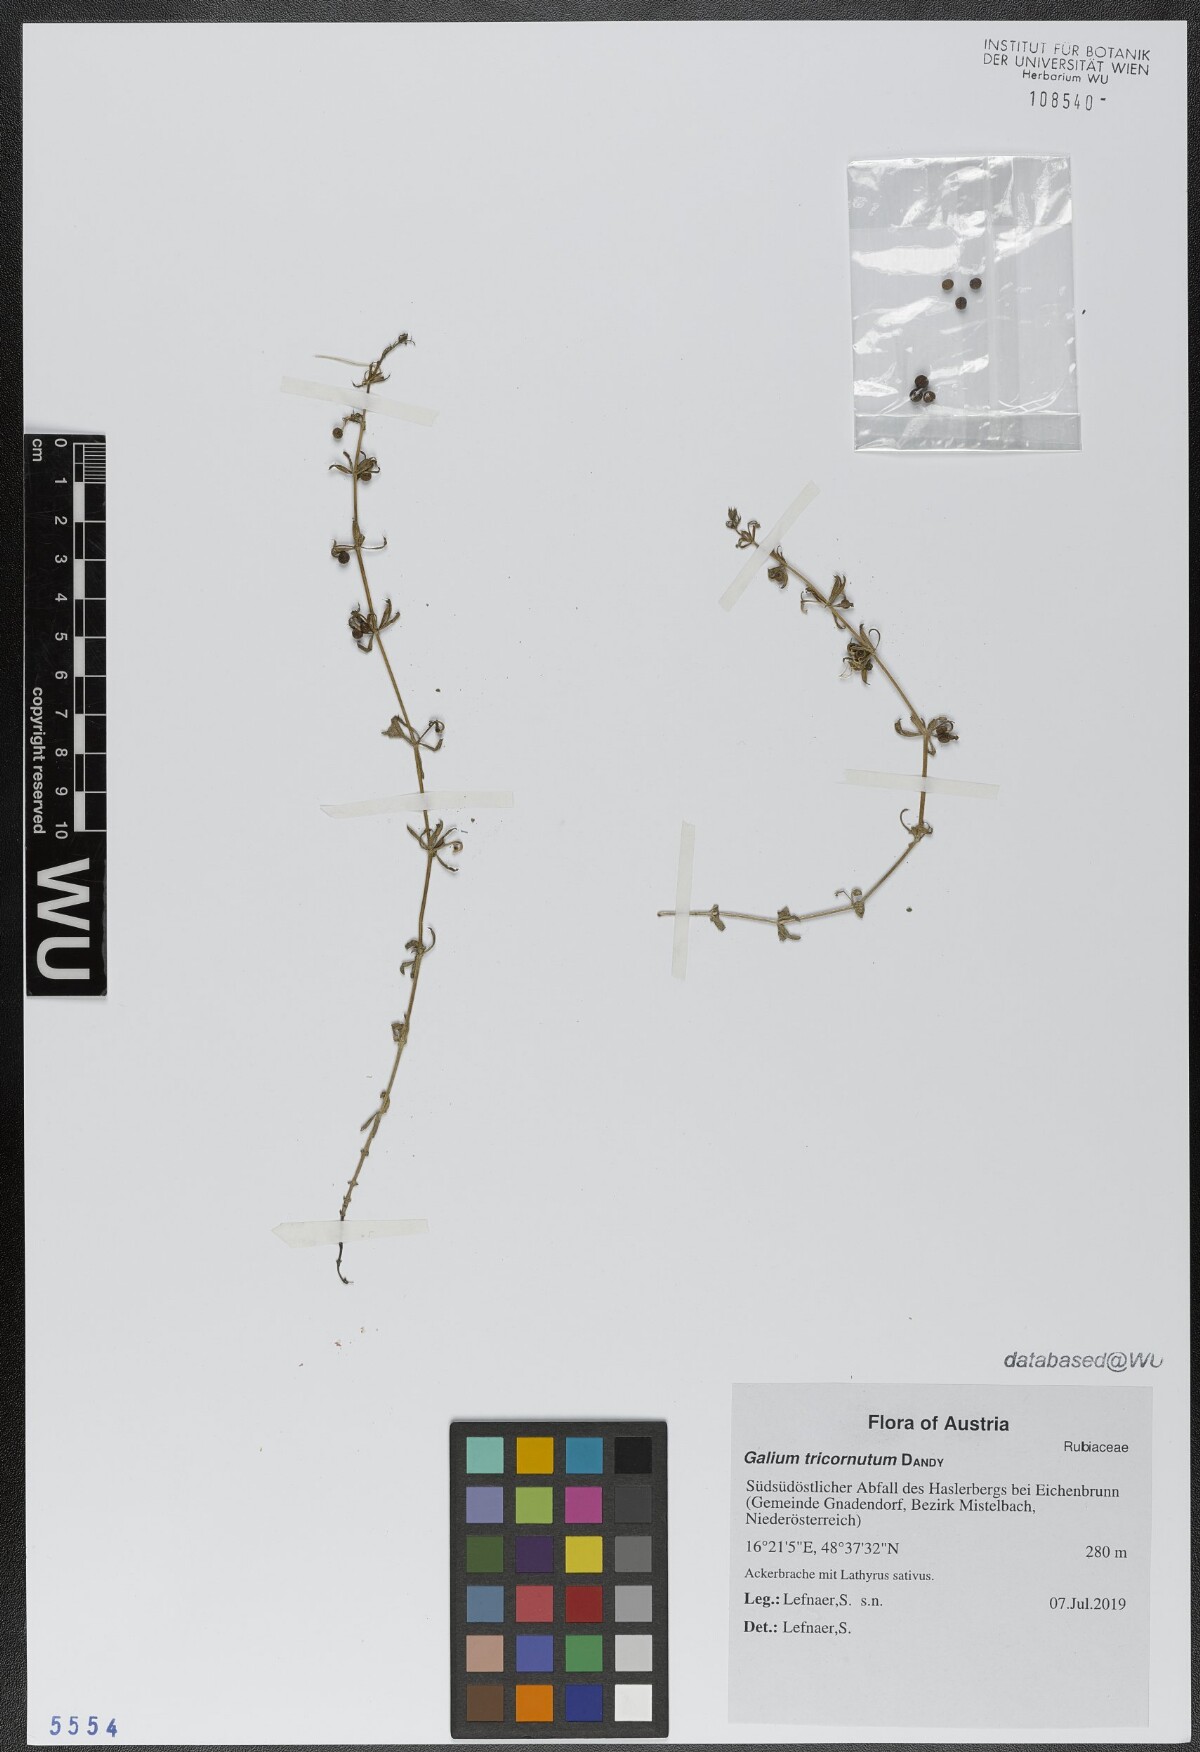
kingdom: Plantae
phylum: Tracheophyta
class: Magnoliopsida
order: Gentianales
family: Rubiaceae
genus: Galium
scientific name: Galium tricornutum
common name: Corn cleavers
